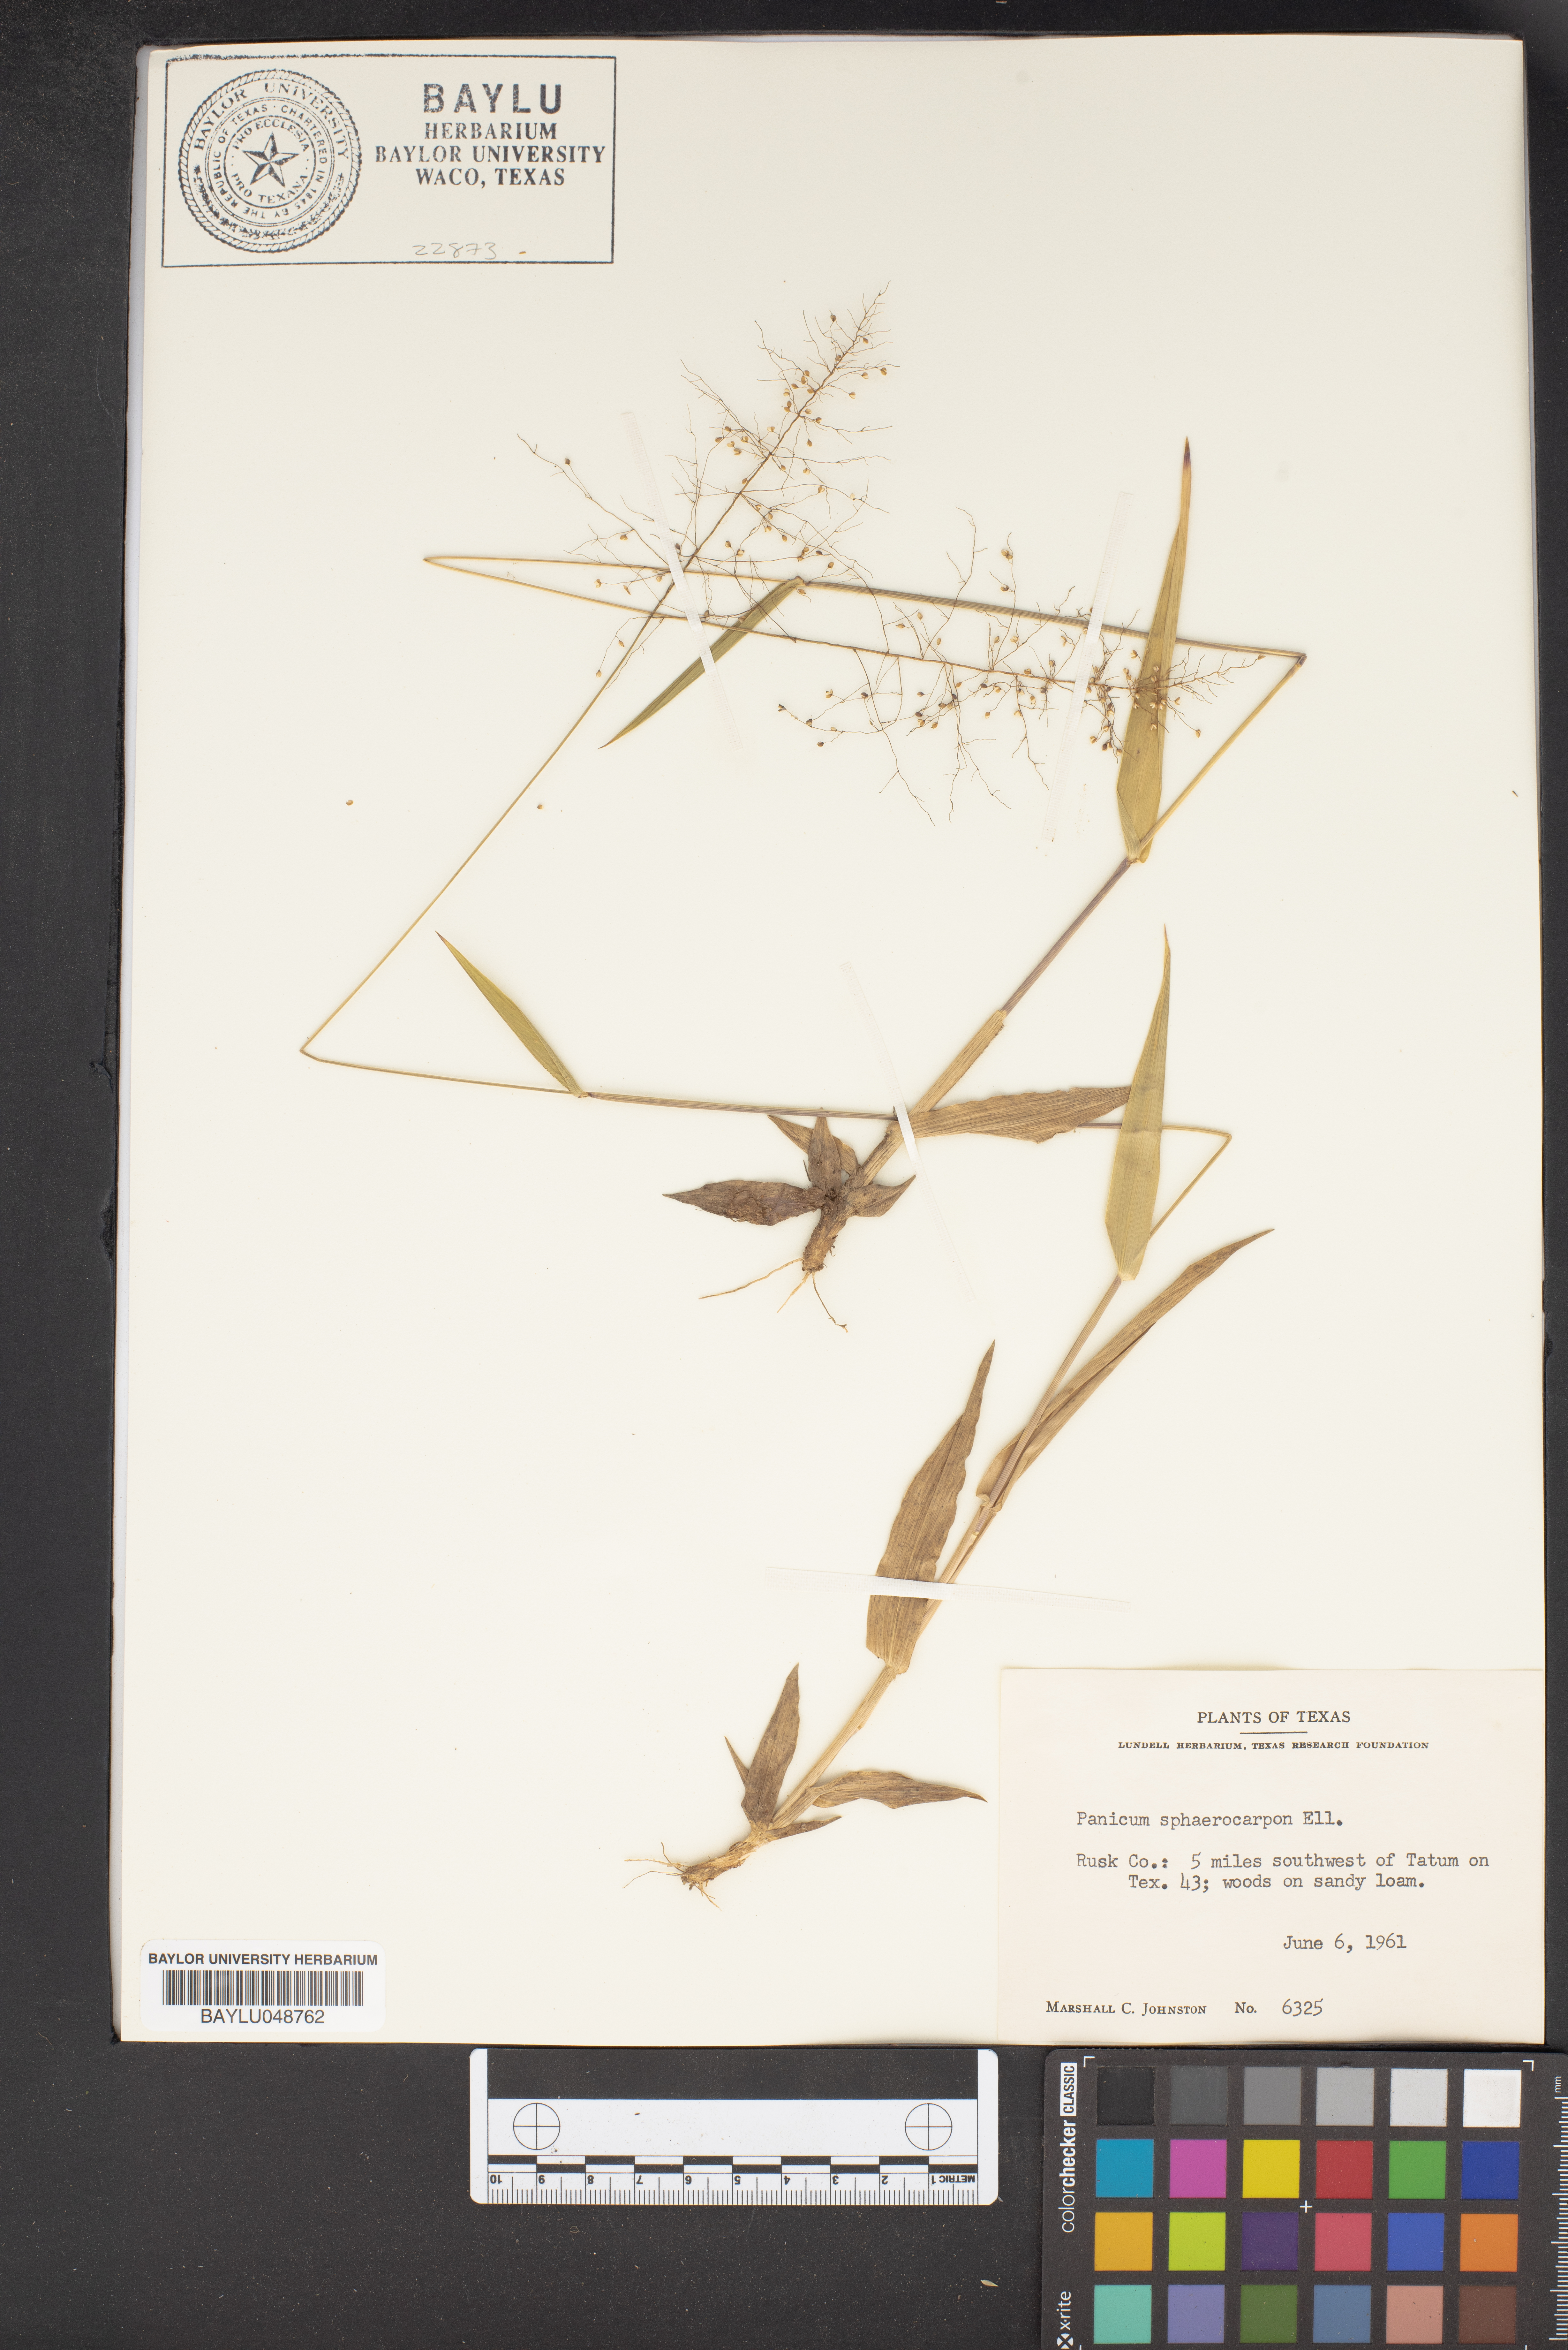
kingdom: Plantae
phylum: Tracheophyta
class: Liliopsida
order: Poales
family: Poaceae
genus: Dichanthelium
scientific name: Dichanthelium sphaerocarpon
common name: Round-fruited panicgrass
